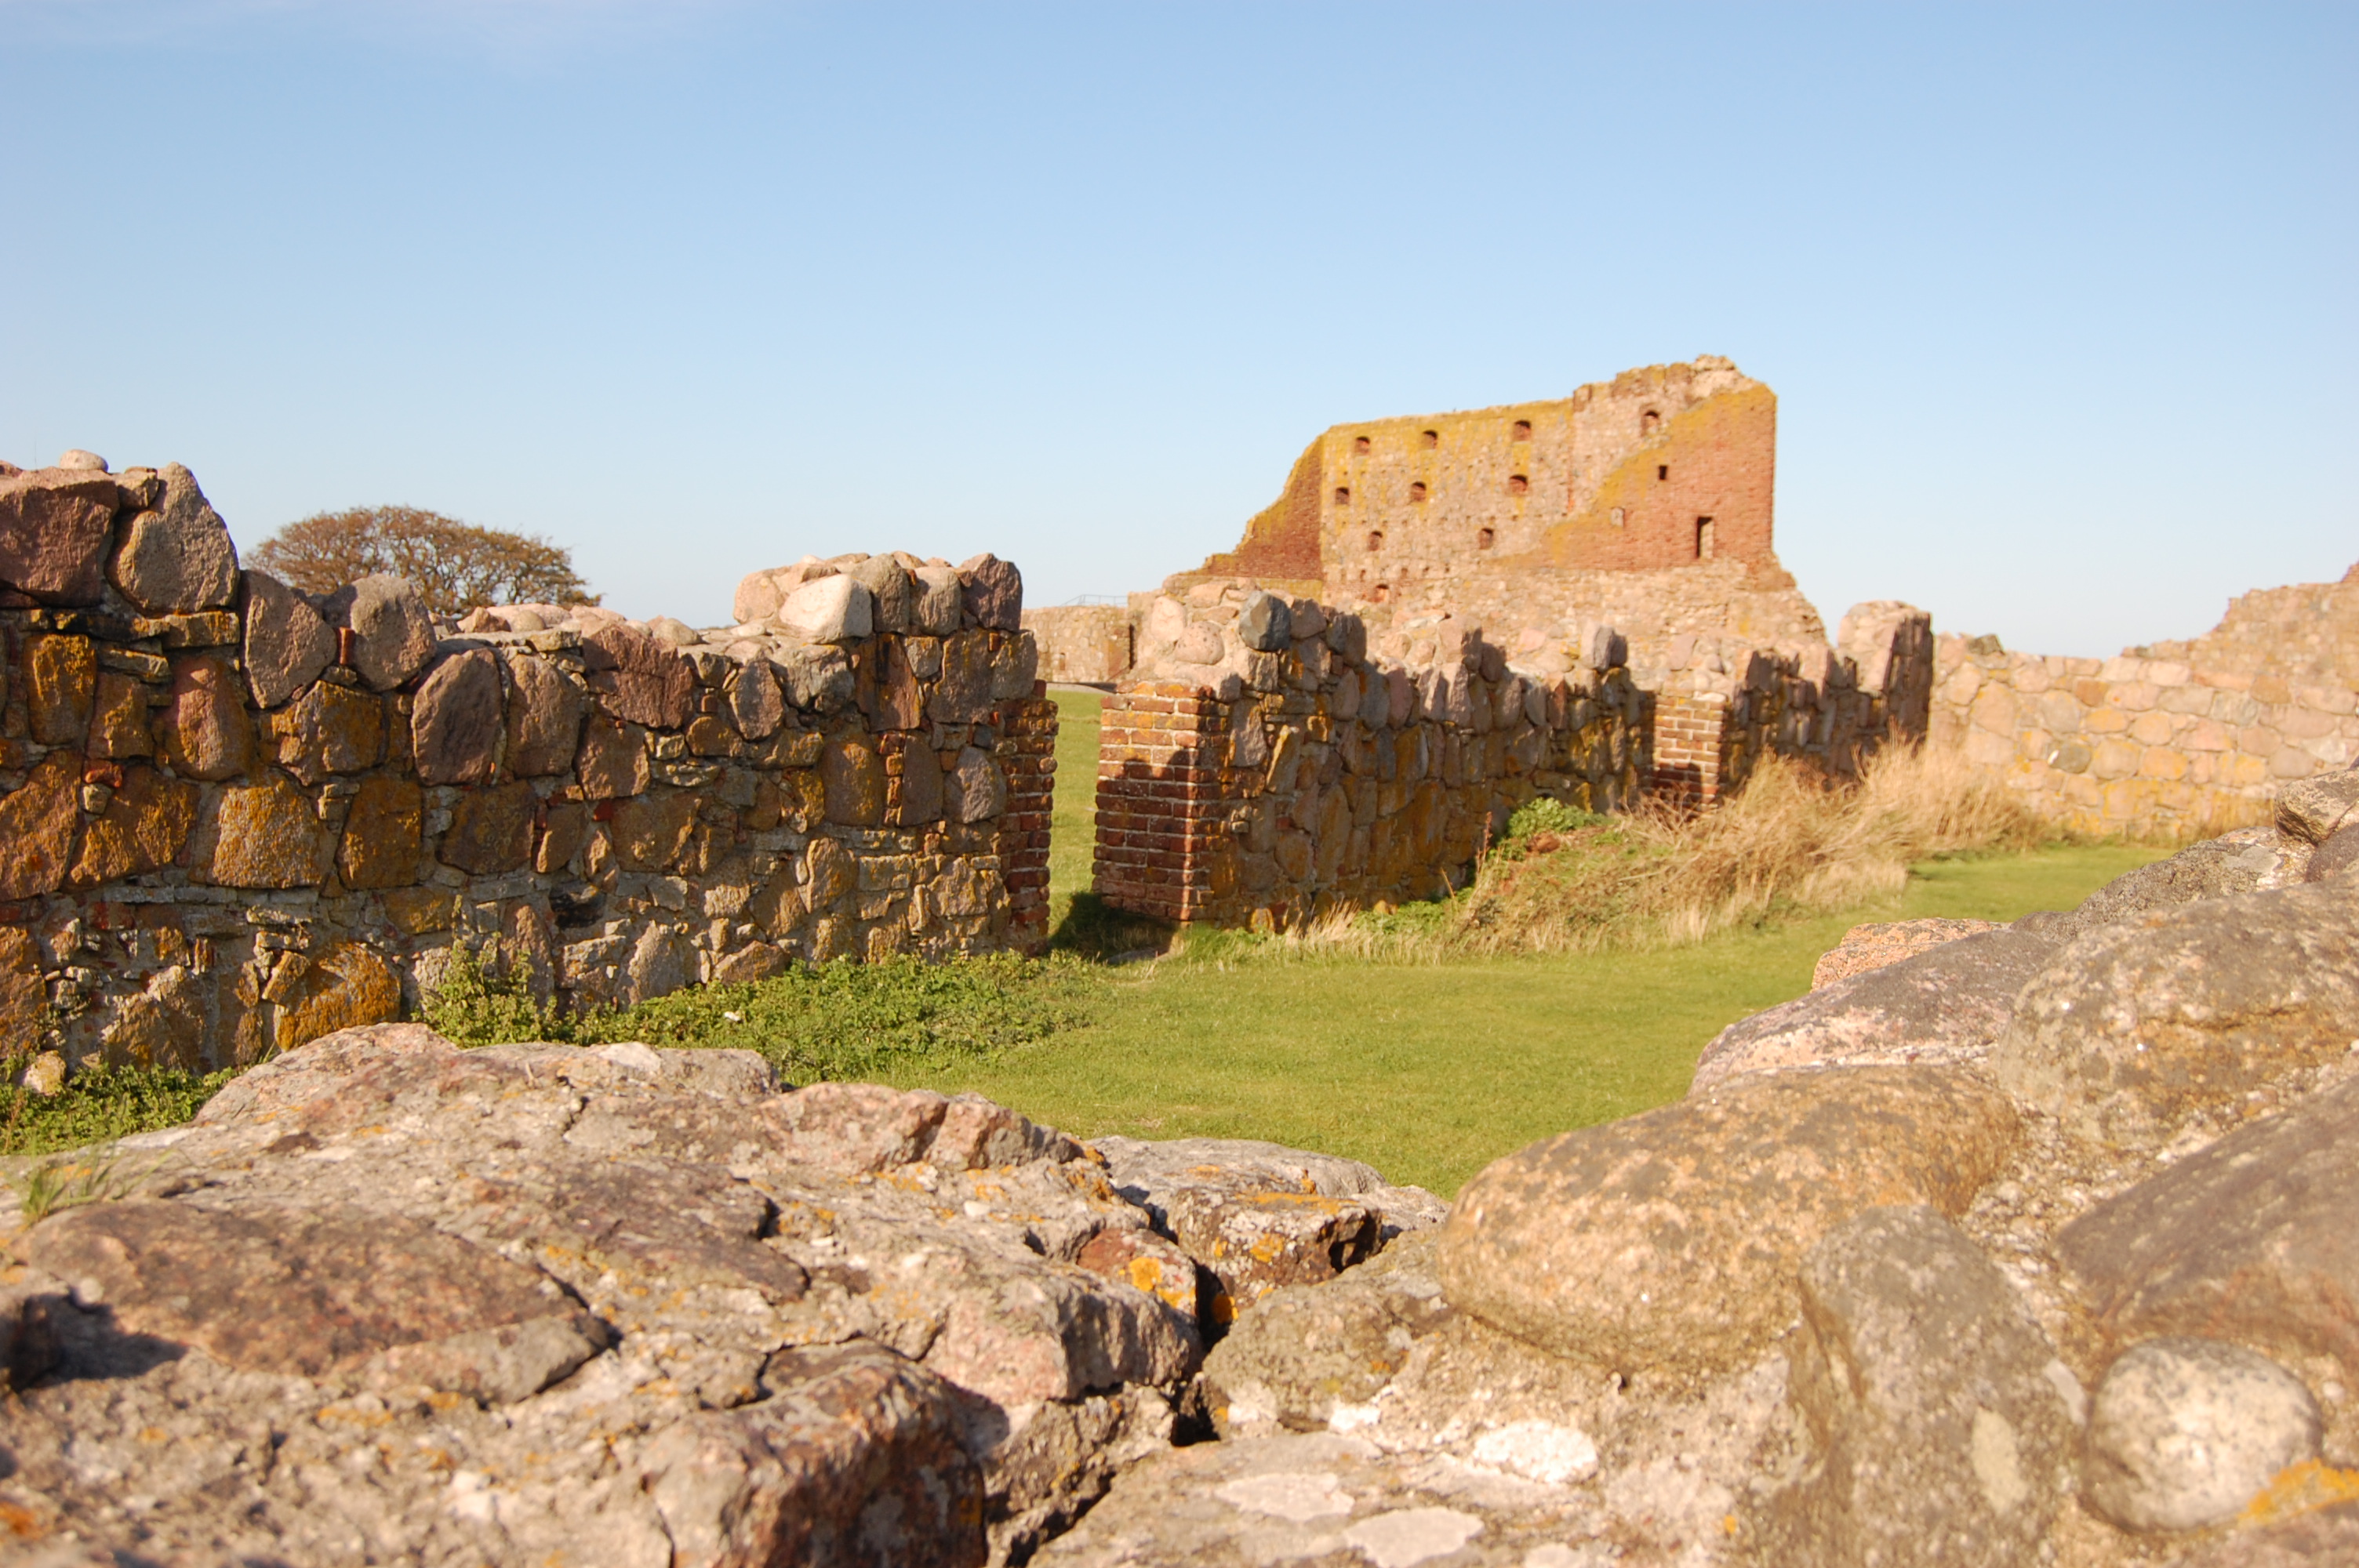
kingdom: Plantae
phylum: Tracheophyta
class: Magnoliopsida
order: Asterales
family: Asteraceae
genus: Tragopogon
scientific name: Tragopogon porrifolius
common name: Salsify
